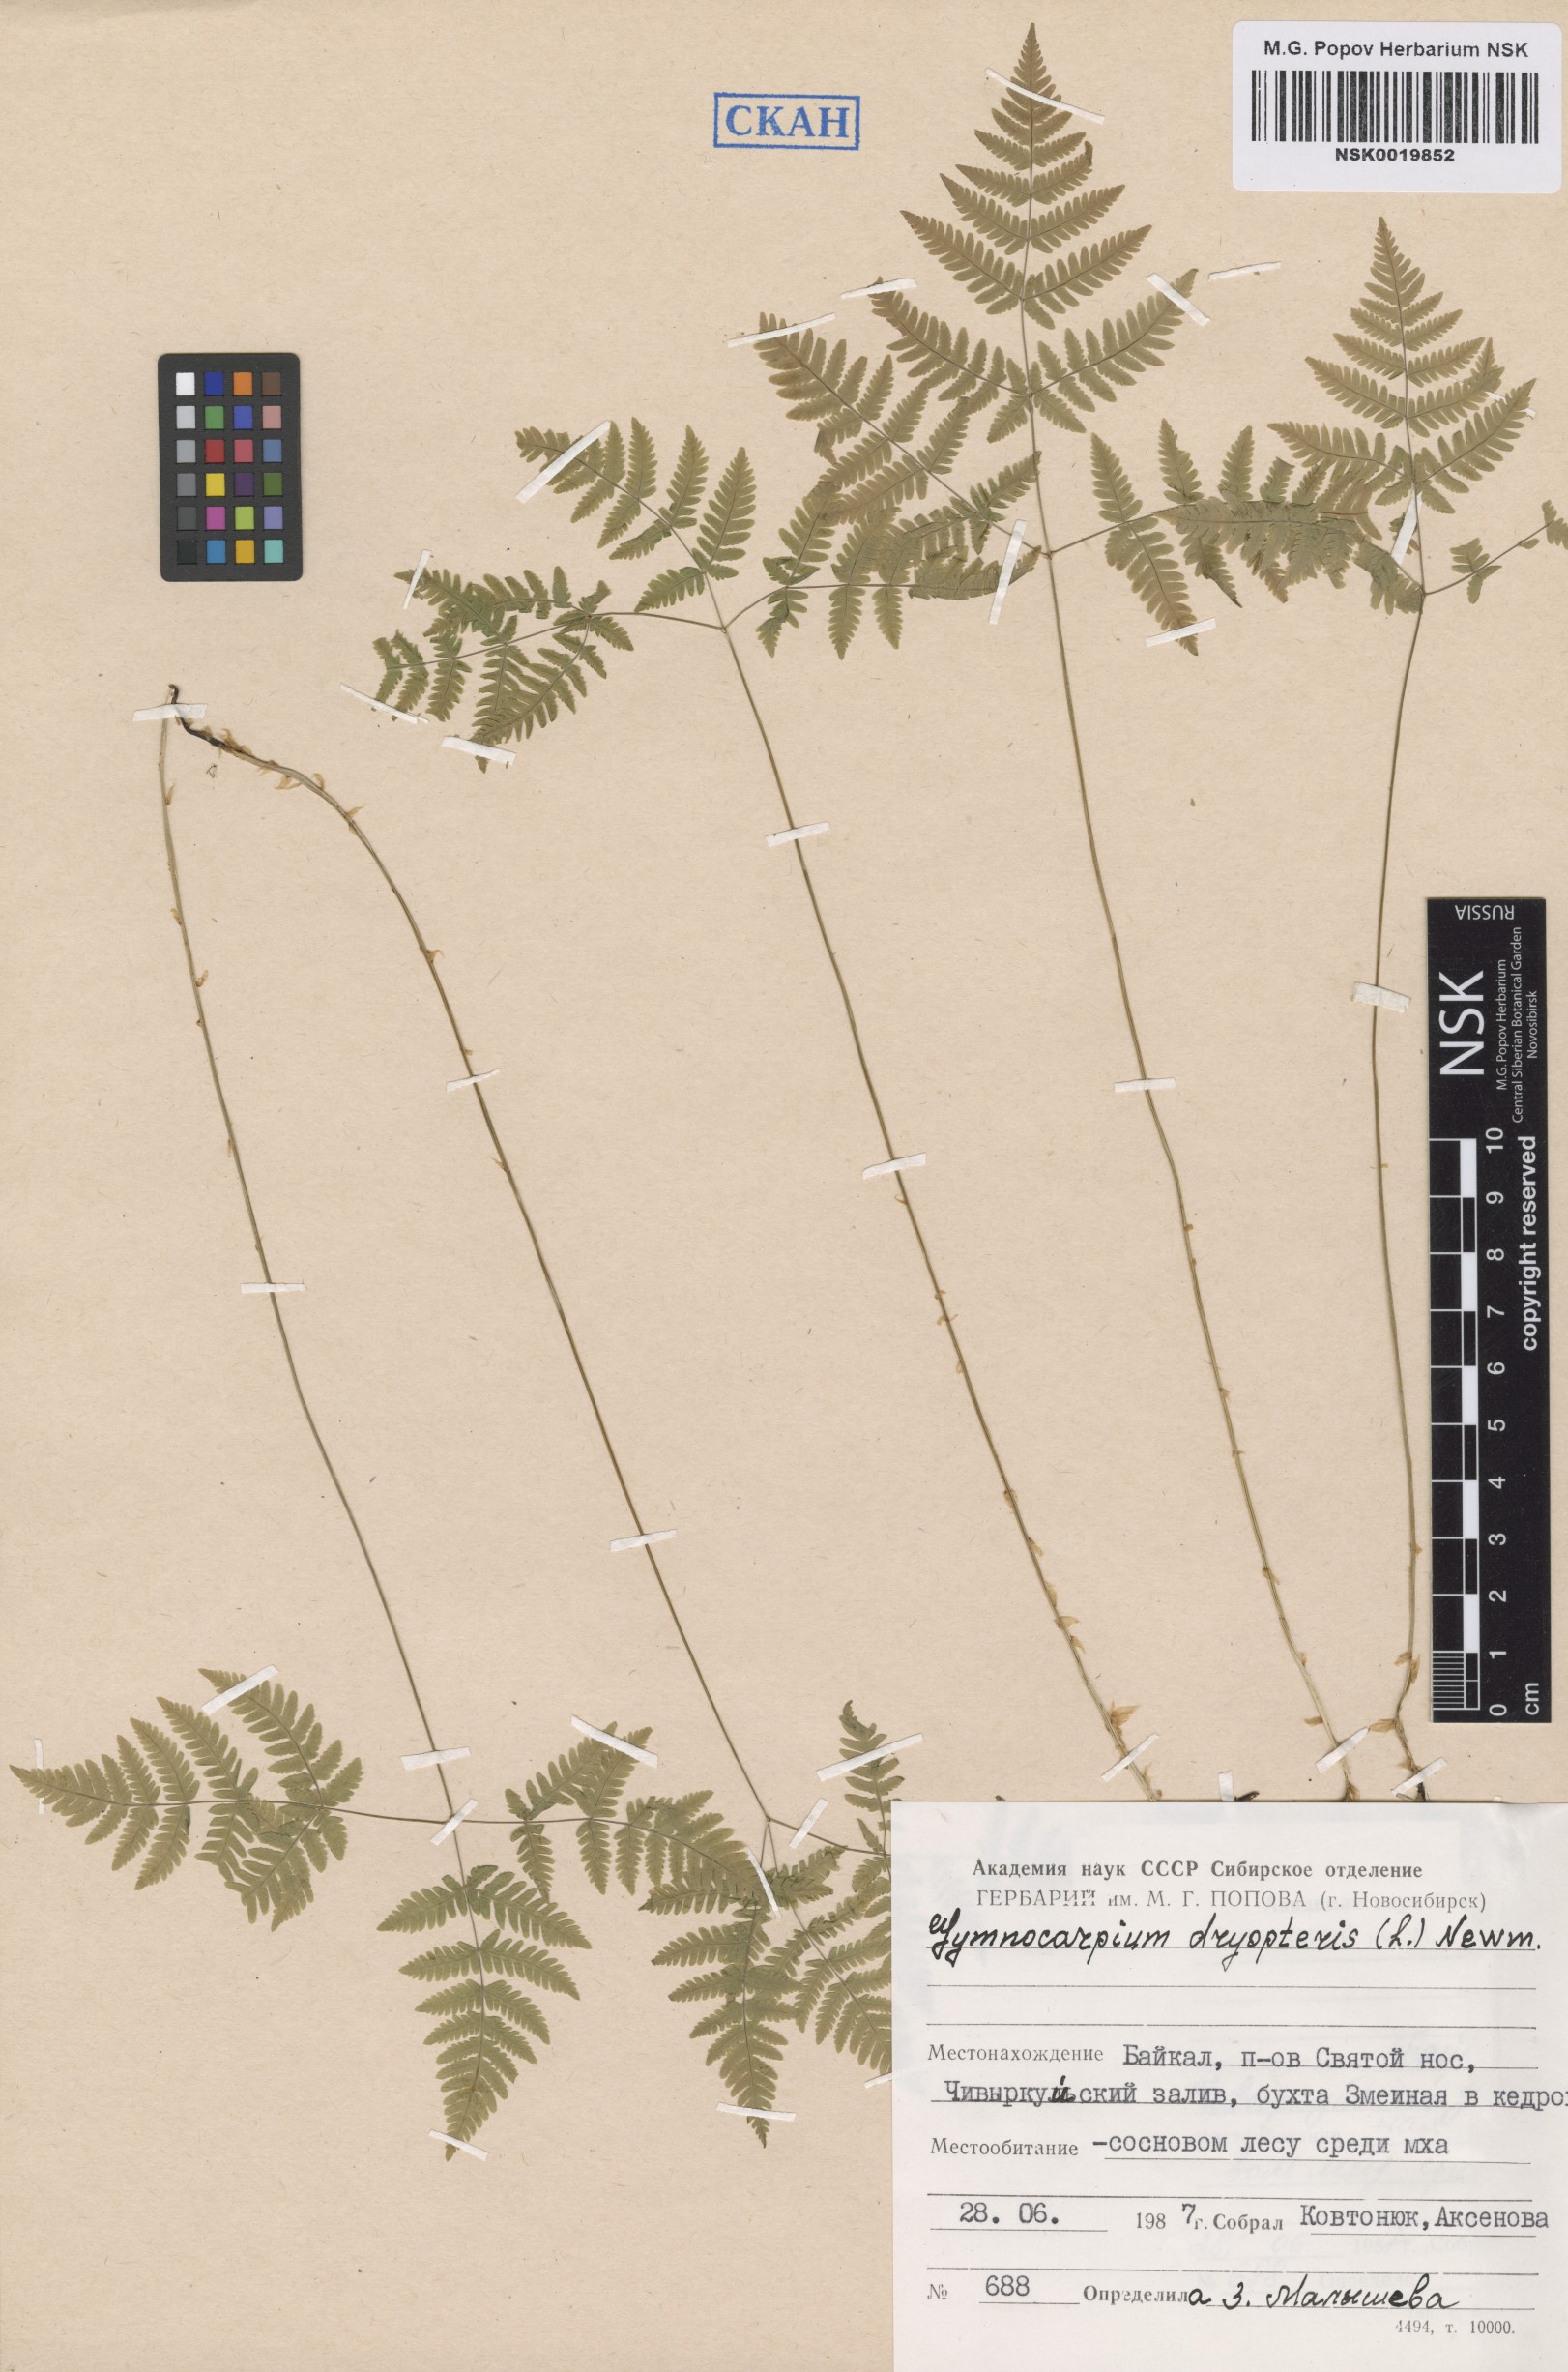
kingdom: Plantae
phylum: Tracheophyta
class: Polypodiopsida
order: Polypodiales
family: Cystopteridaceae
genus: Gymnocarpium
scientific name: Gymnocarpium dryopteris
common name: Oak fern
